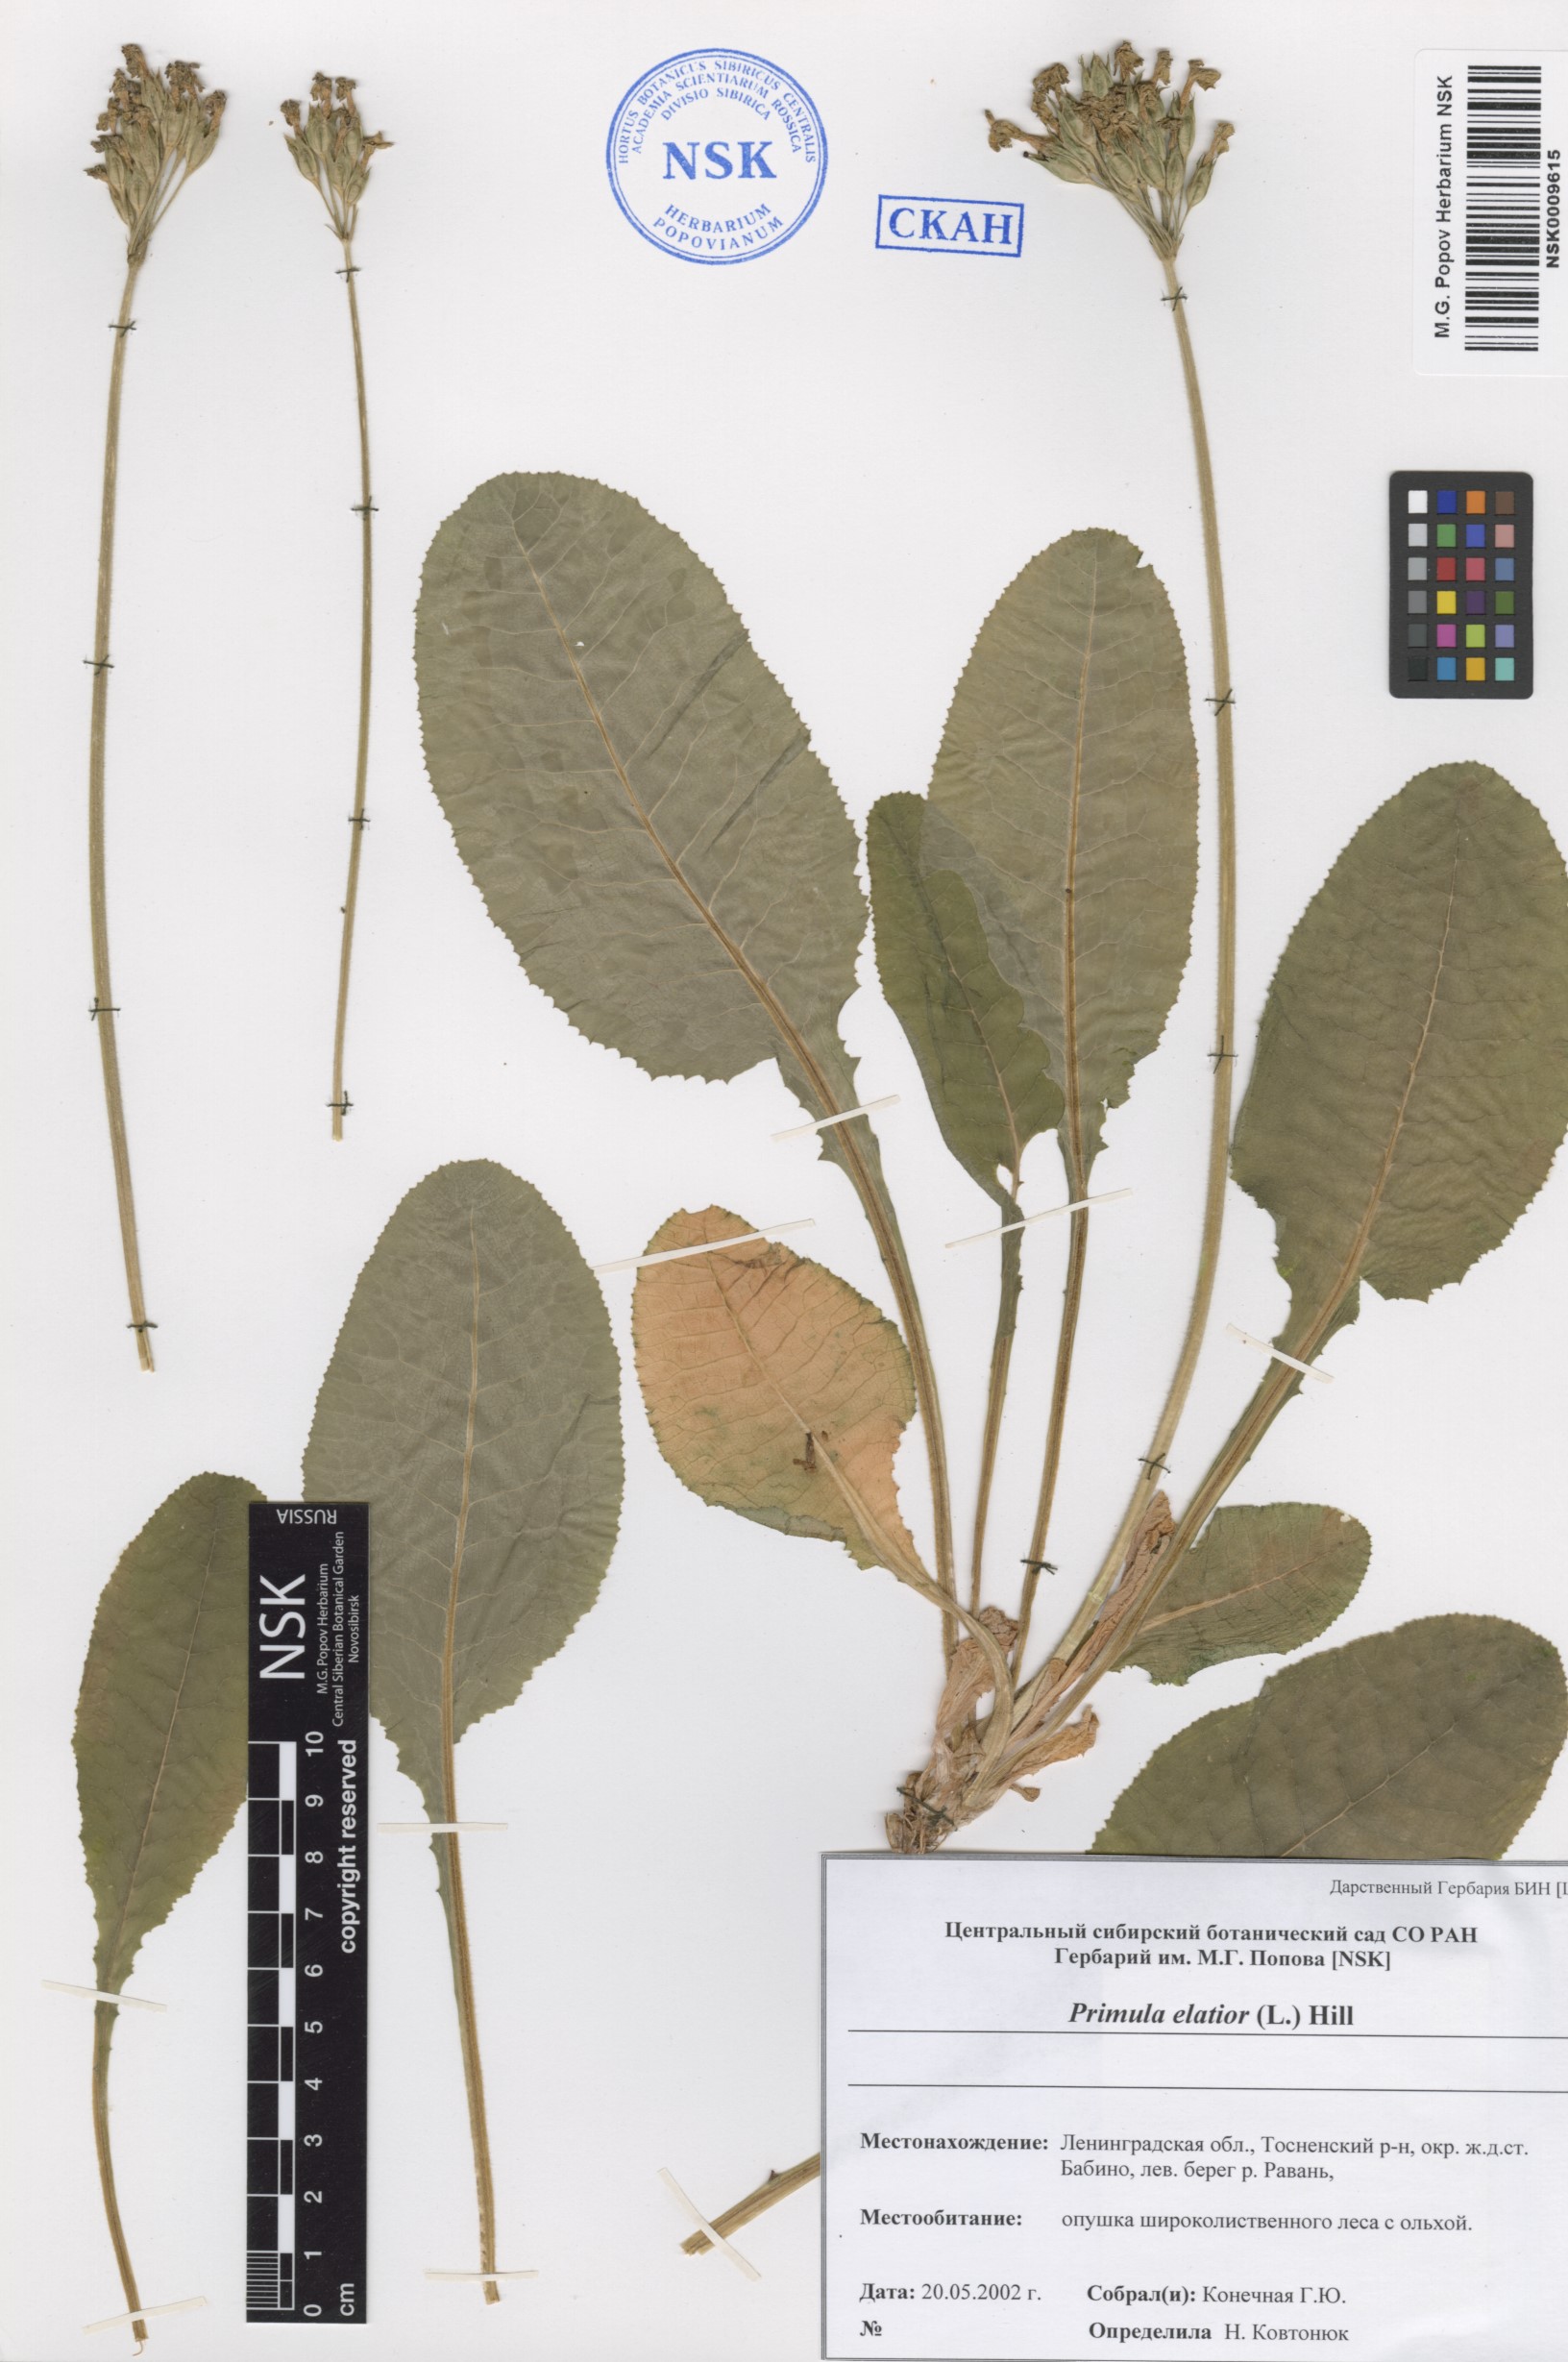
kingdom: Plantae
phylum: Tracheophyta
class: Magnoliopsida
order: Ericales
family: Primulaceae
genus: Primula
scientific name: Primula elatior
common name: Oxlip
